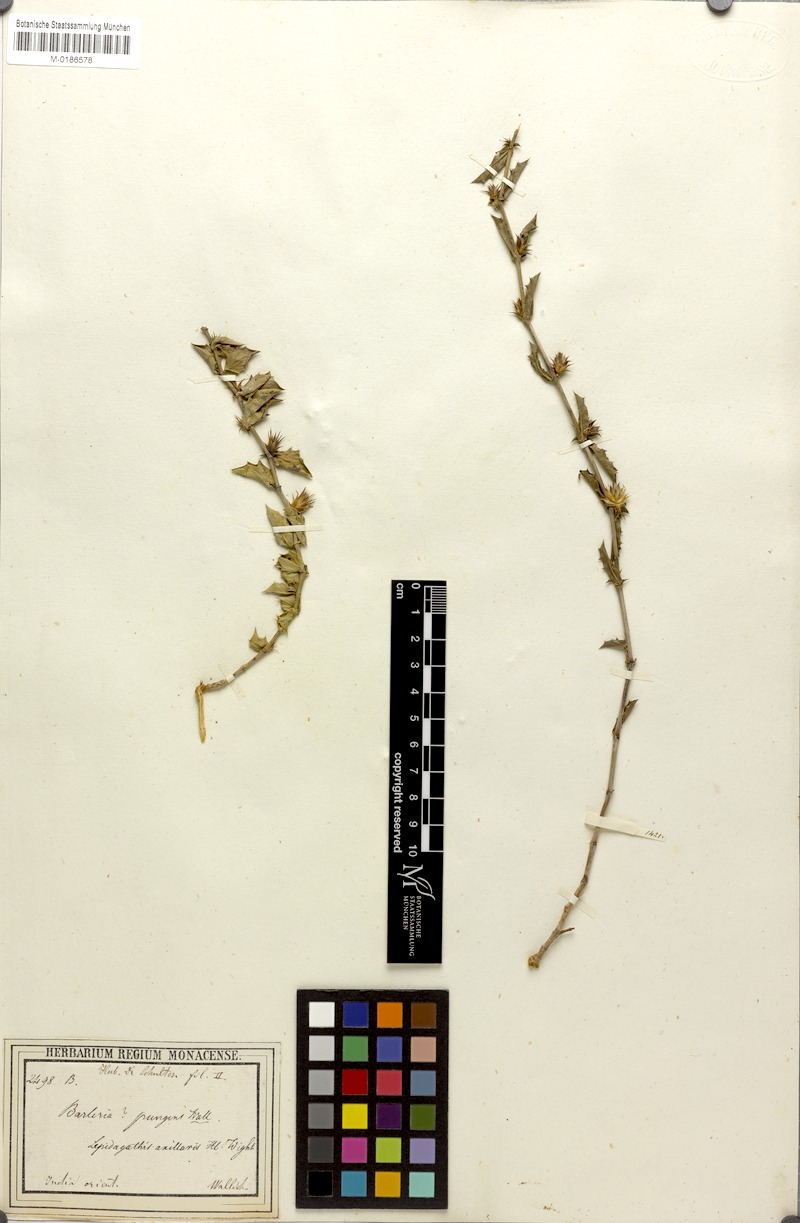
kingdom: Plantae
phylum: Tracheophyta
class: Magnoliopsida
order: Lamiales
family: Acanthaceae
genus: Lepidagathis
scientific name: Lepidagathis pungens
